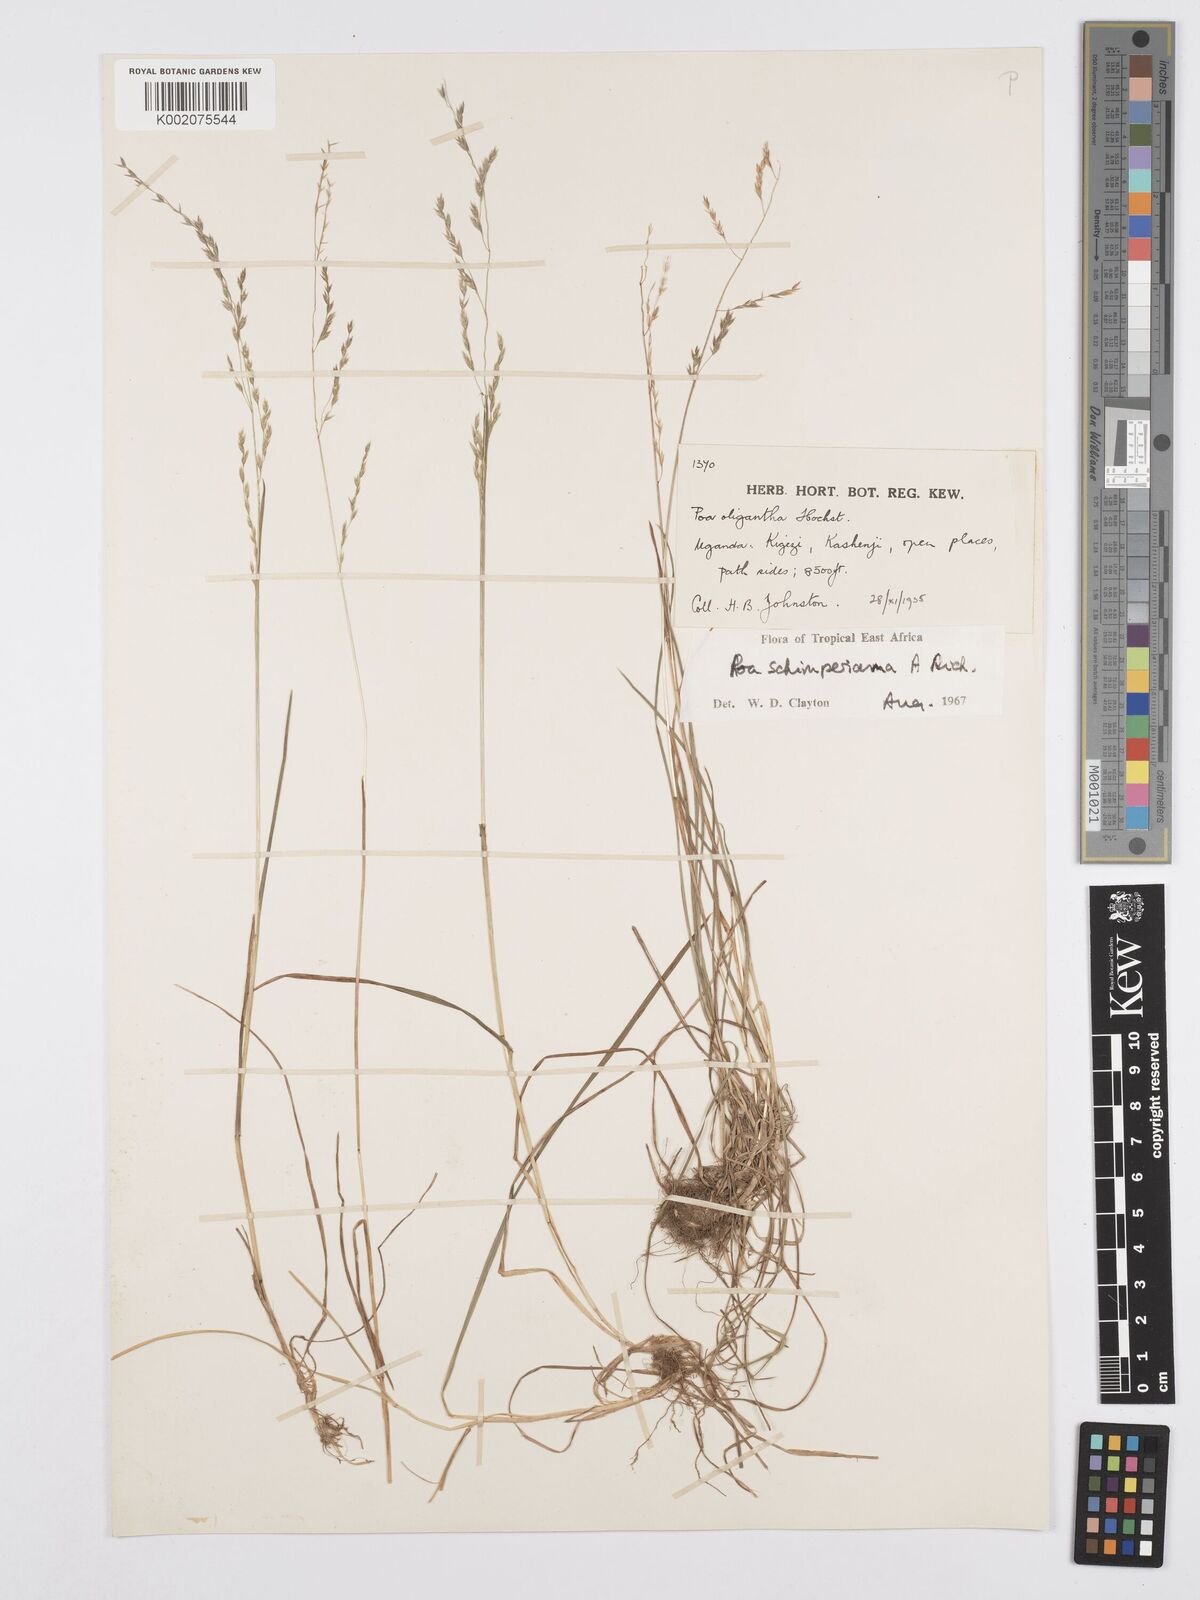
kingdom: Plantae
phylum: Tracheophyta
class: Liliopsida
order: Poales
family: Poaceae
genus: Poa
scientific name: Poa schimperiana
